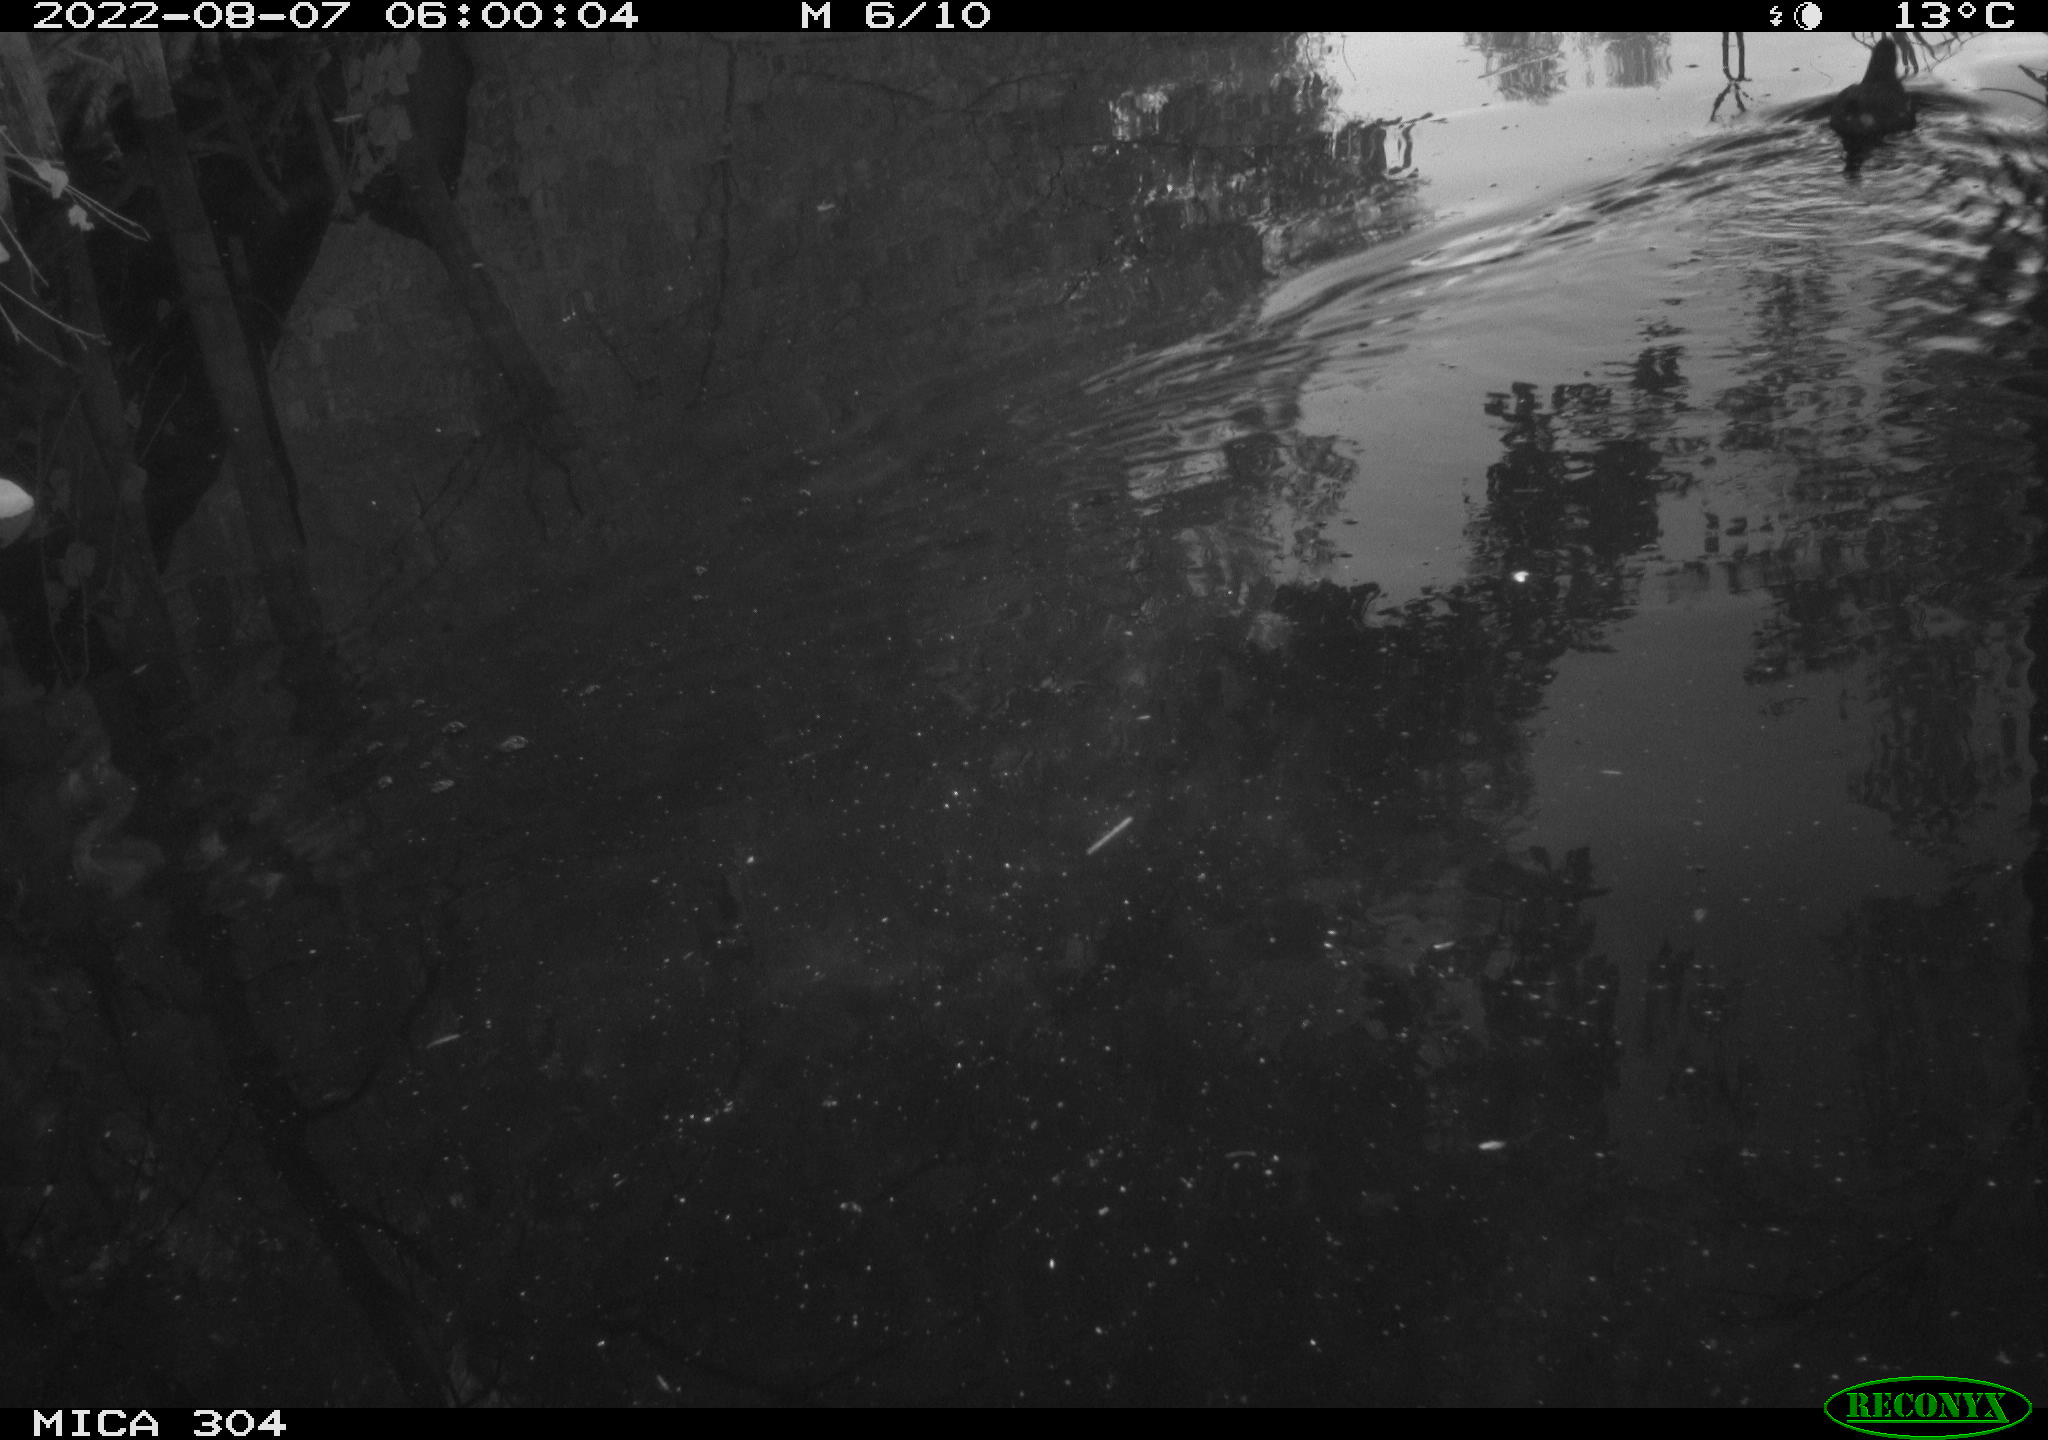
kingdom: Animalia
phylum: Chordata
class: Aves
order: Gruiformes
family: Rallidae
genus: Gallinula
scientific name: Gallinula chloropus
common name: Common moorhen
